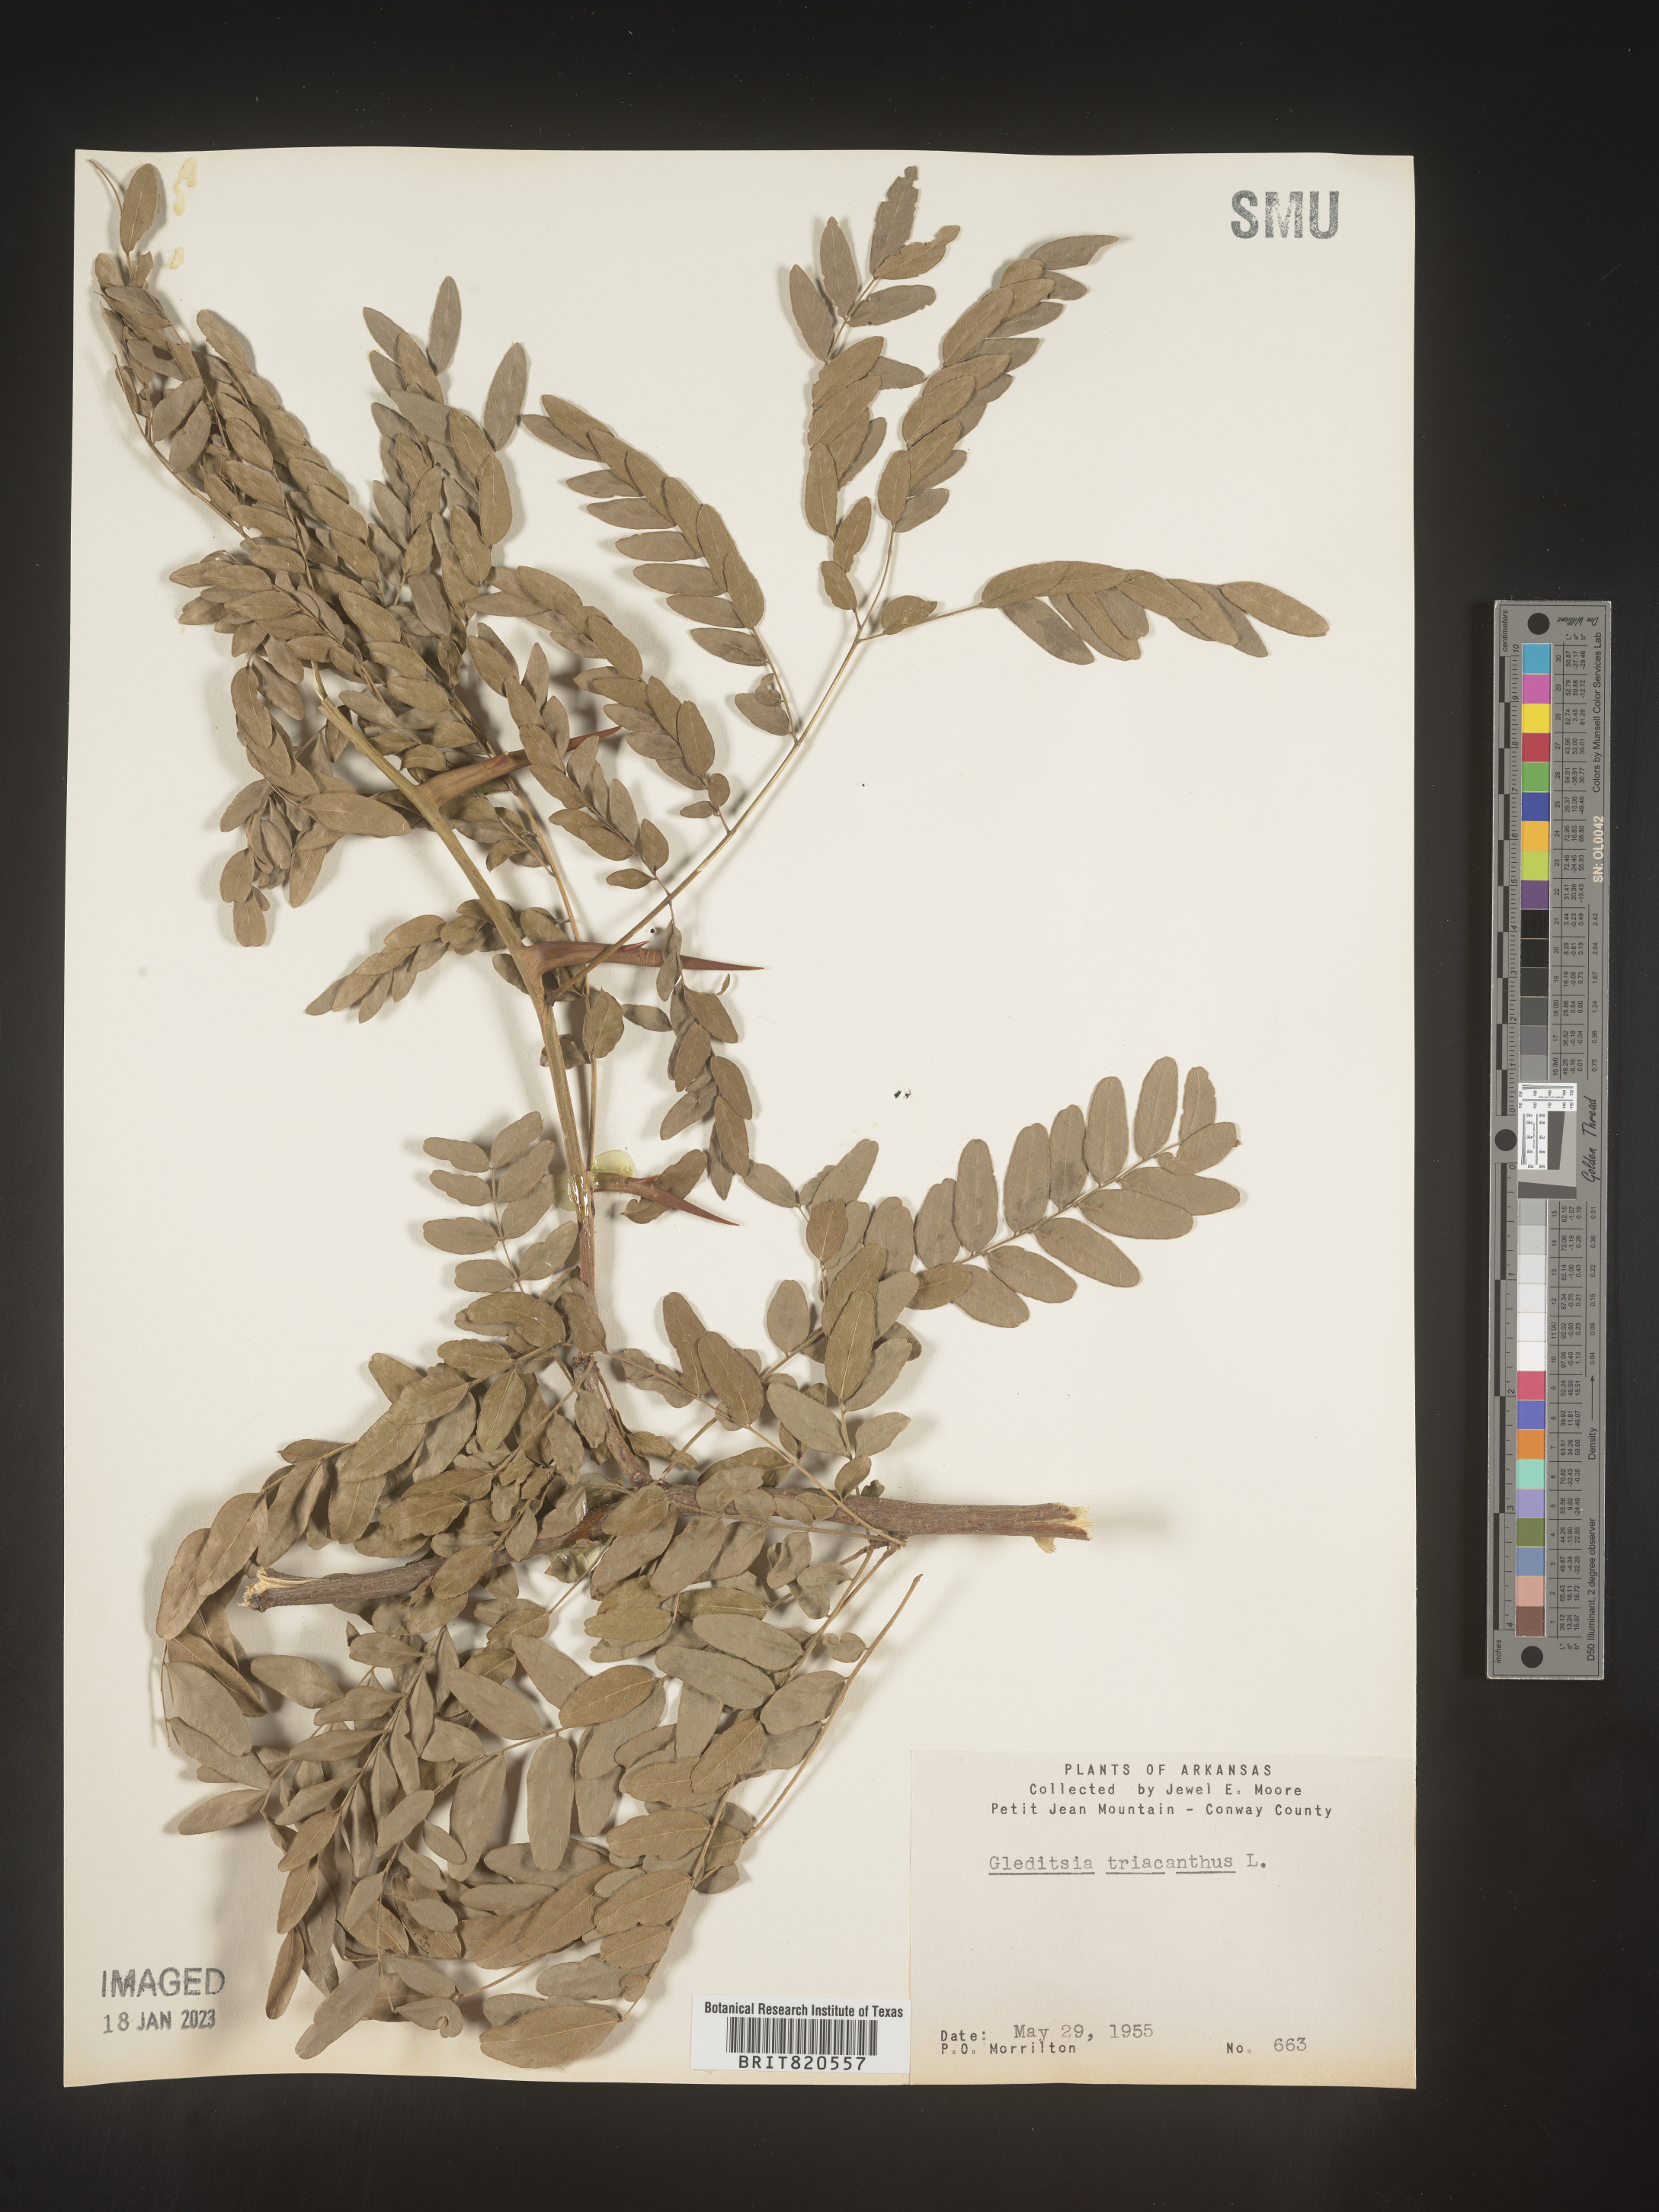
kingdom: Plantae
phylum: Tracheophyta
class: Magnoliopsida
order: Fabales
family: Fabaceae
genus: Gleditsia
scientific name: Gleditsia triacanthos
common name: Common honeylocust
